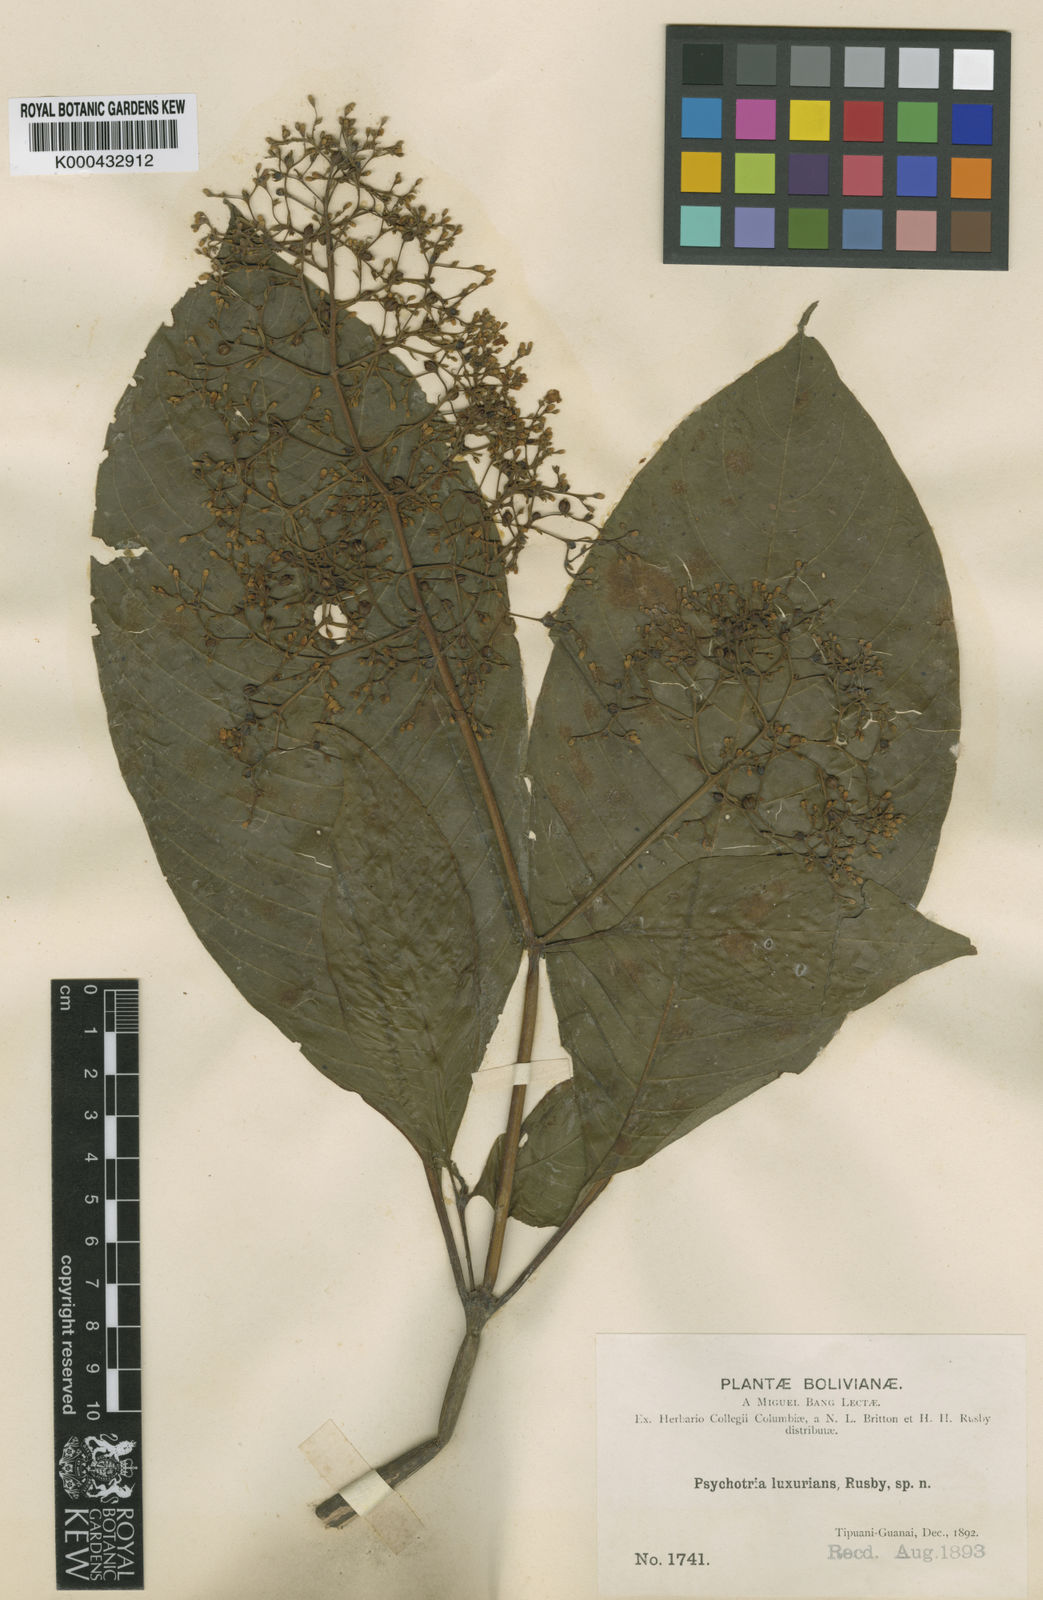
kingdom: Plantae
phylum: Tracheophyta
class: Magnoliopsida
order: Gentianales
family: Rubiaceae
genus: Palicourea
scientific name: Palicourea luxurians
